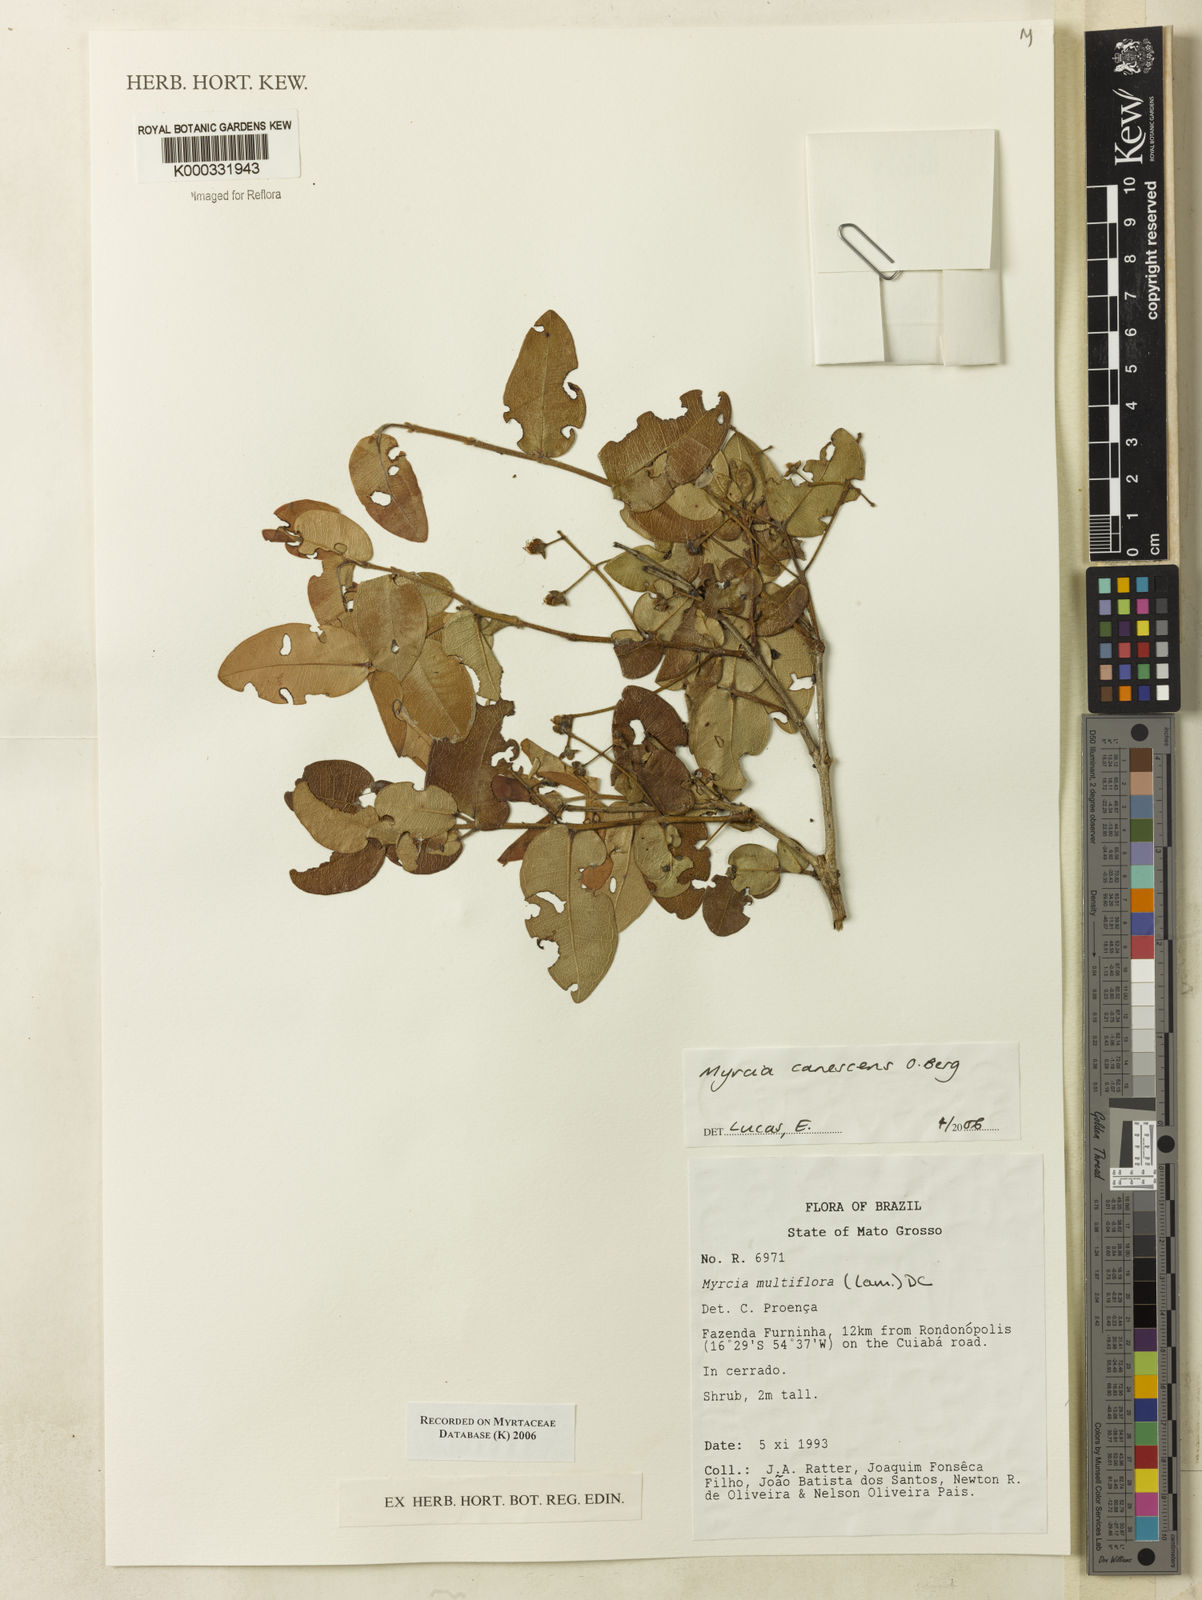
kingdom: Plantae
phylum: Tracheophyta
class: Magnoliopsida
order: Myrtales
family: Myrtaceae
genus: Myrcia
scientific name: Myrcia canescens
